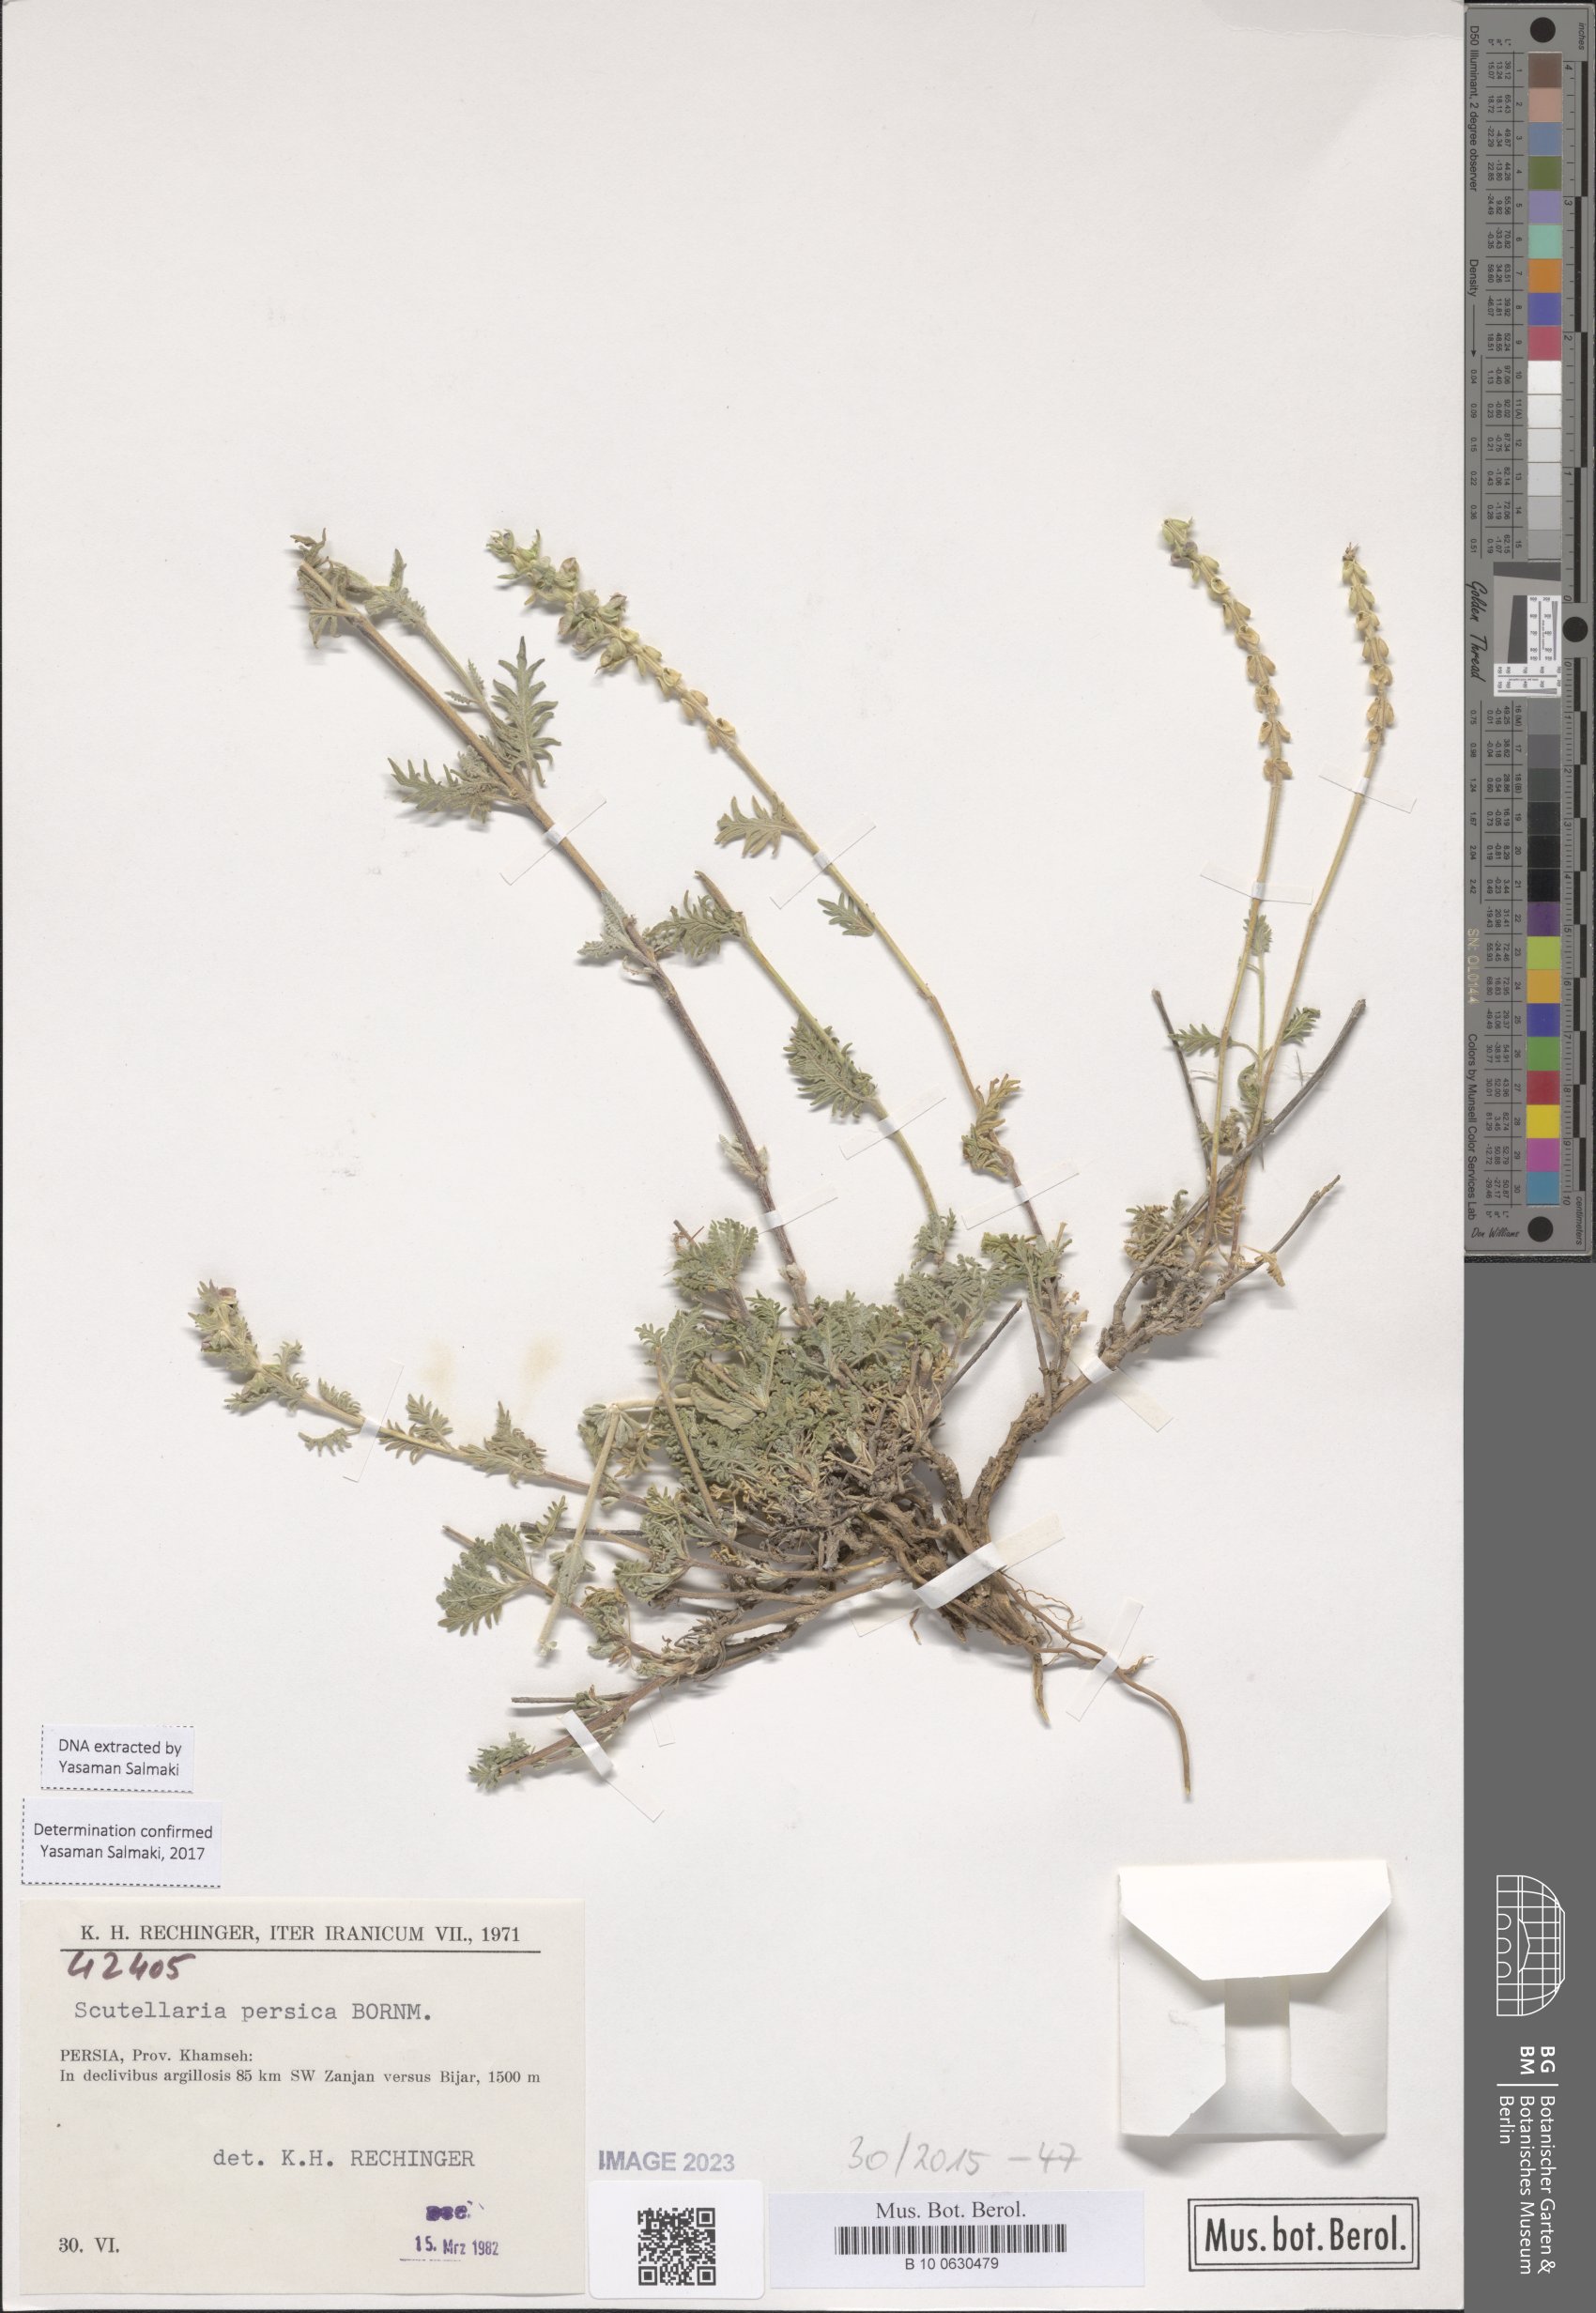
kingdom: Plantae
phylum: Tracheophyta
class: Magnoliopsida
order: Lamiales
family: Lamiaceae
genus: Scutellaria
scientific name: Scutellaria persica
